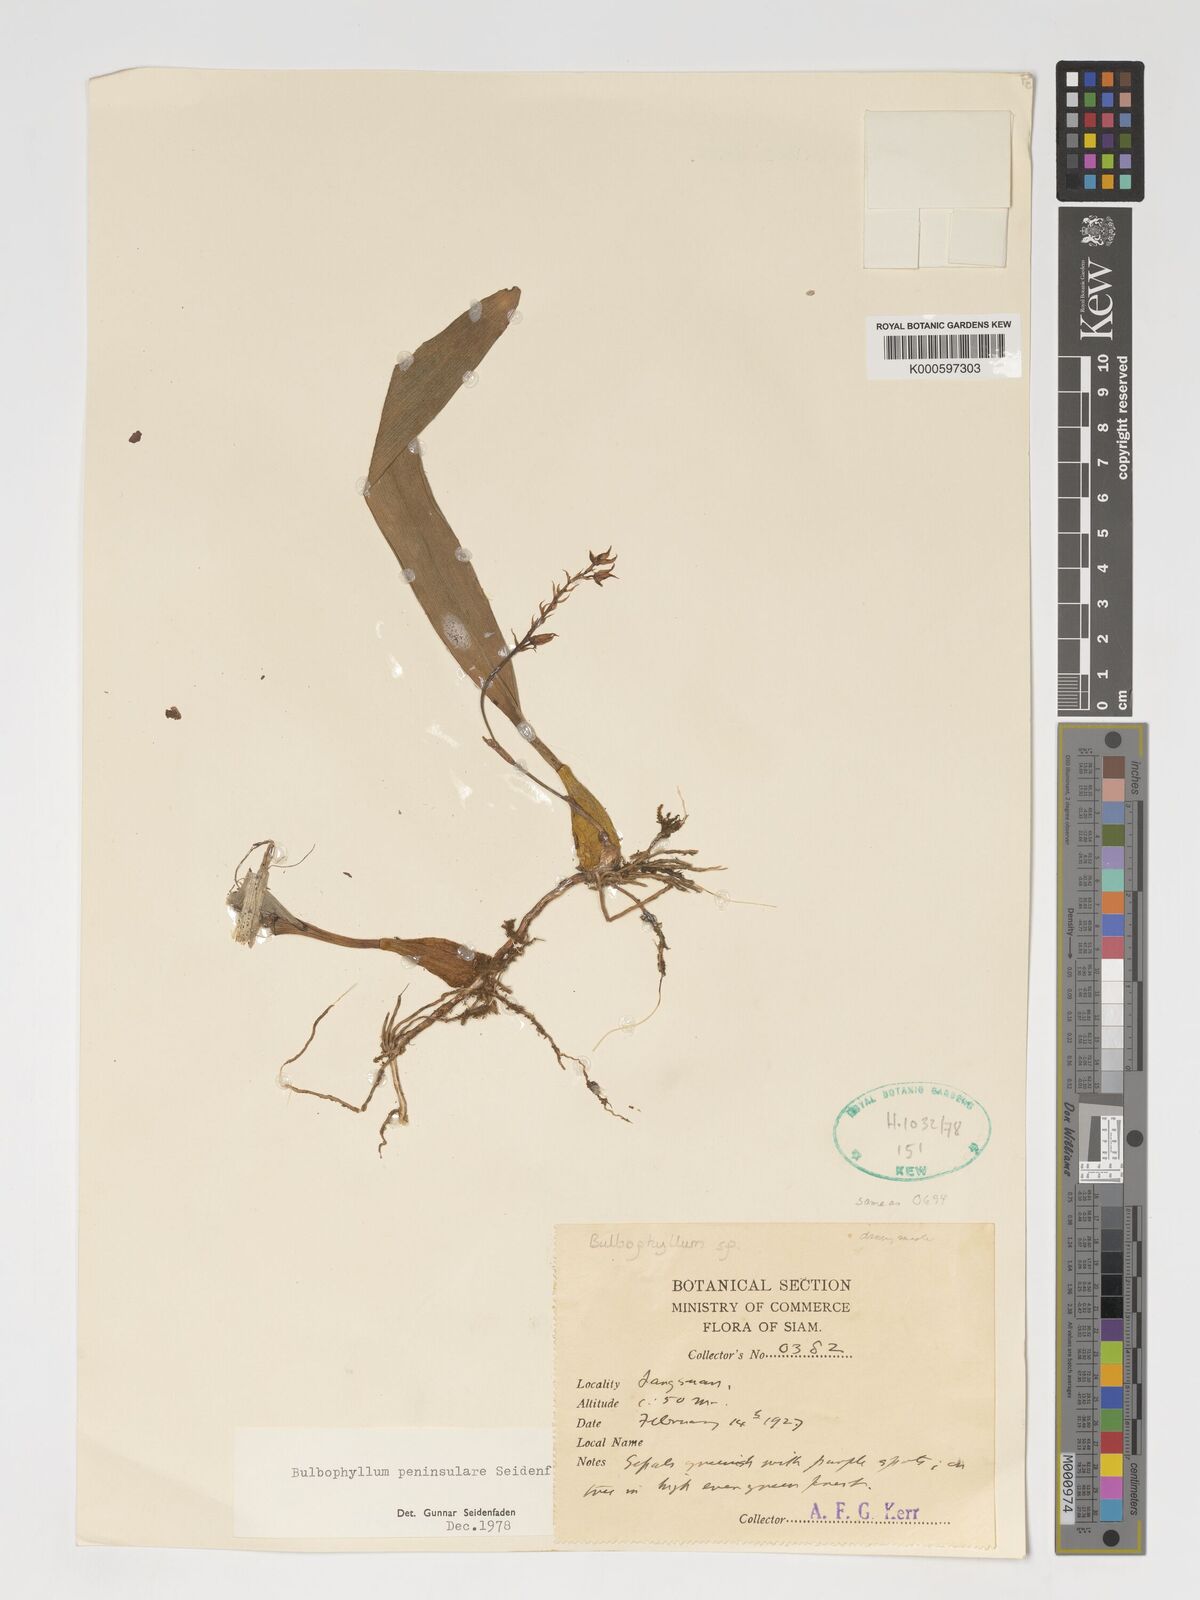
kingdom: Plantae
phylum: Tracheophyta
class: Liliopsida
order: Asparagales
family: Orchidaceae
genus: Bulbophyllum
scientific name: Bulbophyllum peninsulare
